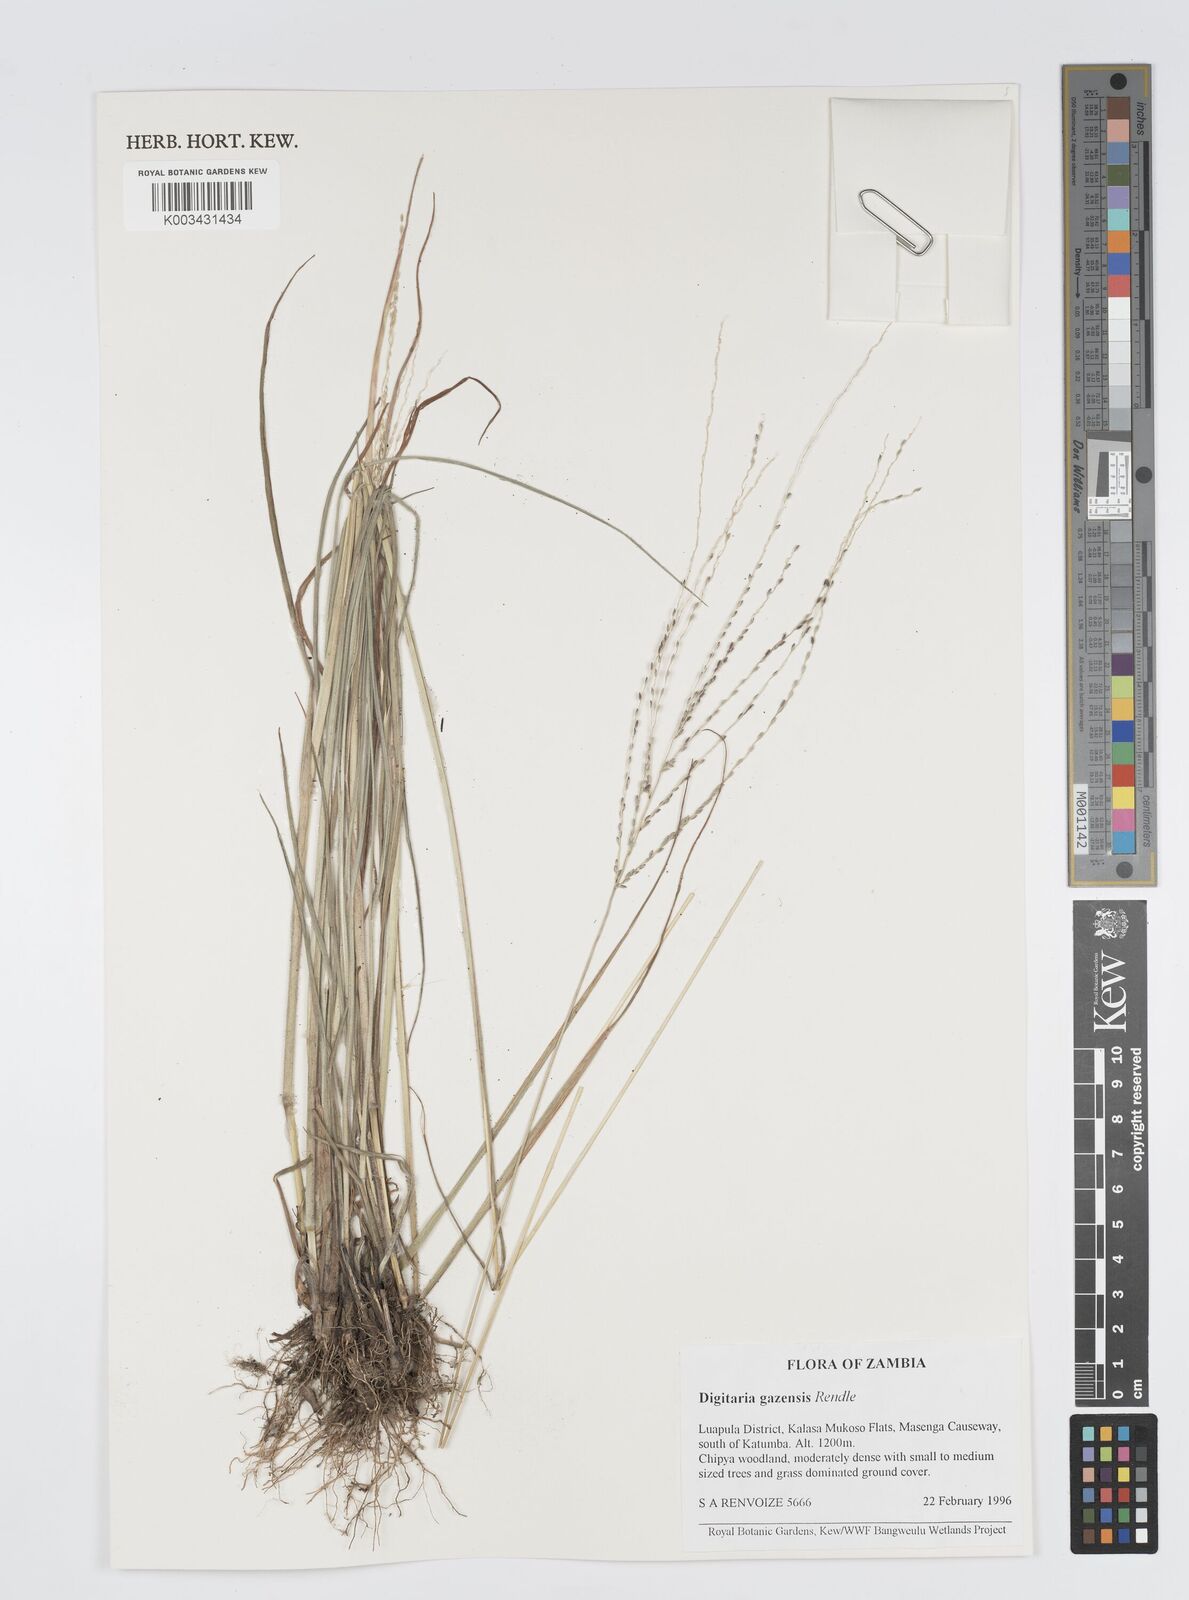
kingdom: Plantae
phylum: Tracheophyta
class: Liliopsida
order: Poales
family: Poaceae
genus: Digitaria
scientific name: Digitaria gazensis
